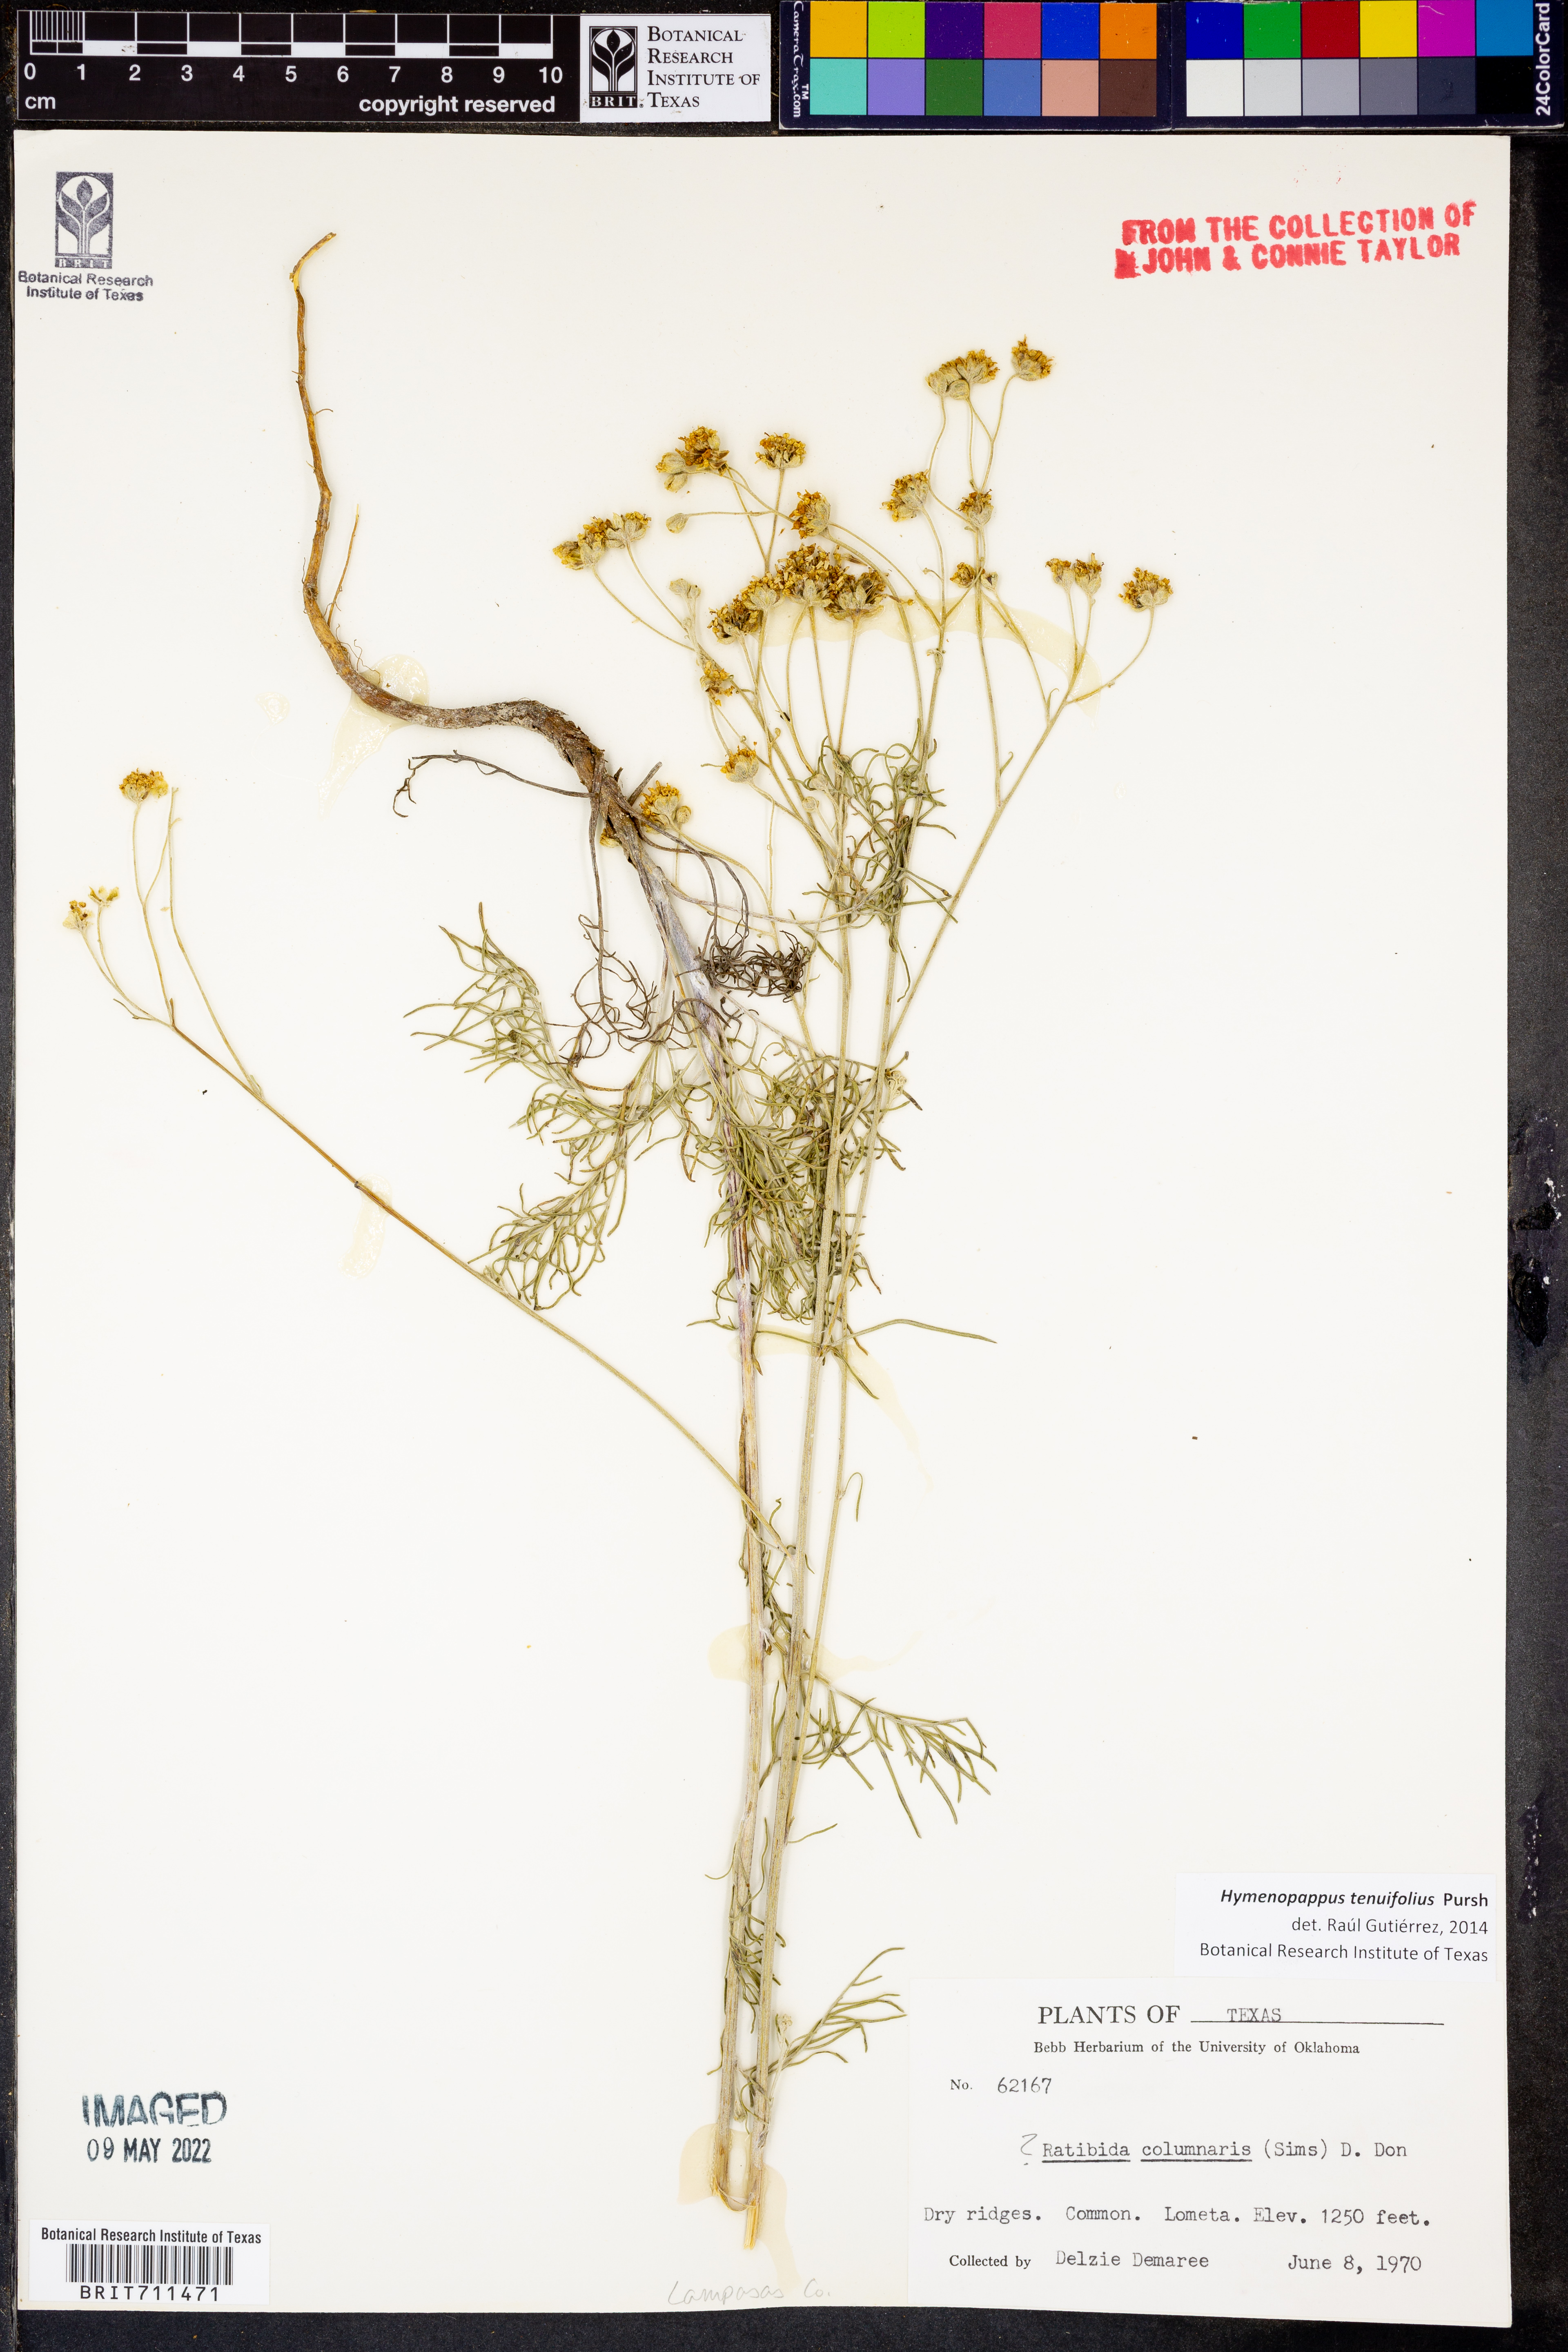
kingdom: Plantae
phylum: Tracheophyta
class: Magnoliopsida
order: Asterales
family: Asteraceae
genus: Hymenopappus
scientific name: Hymenopappus tenuifolius
